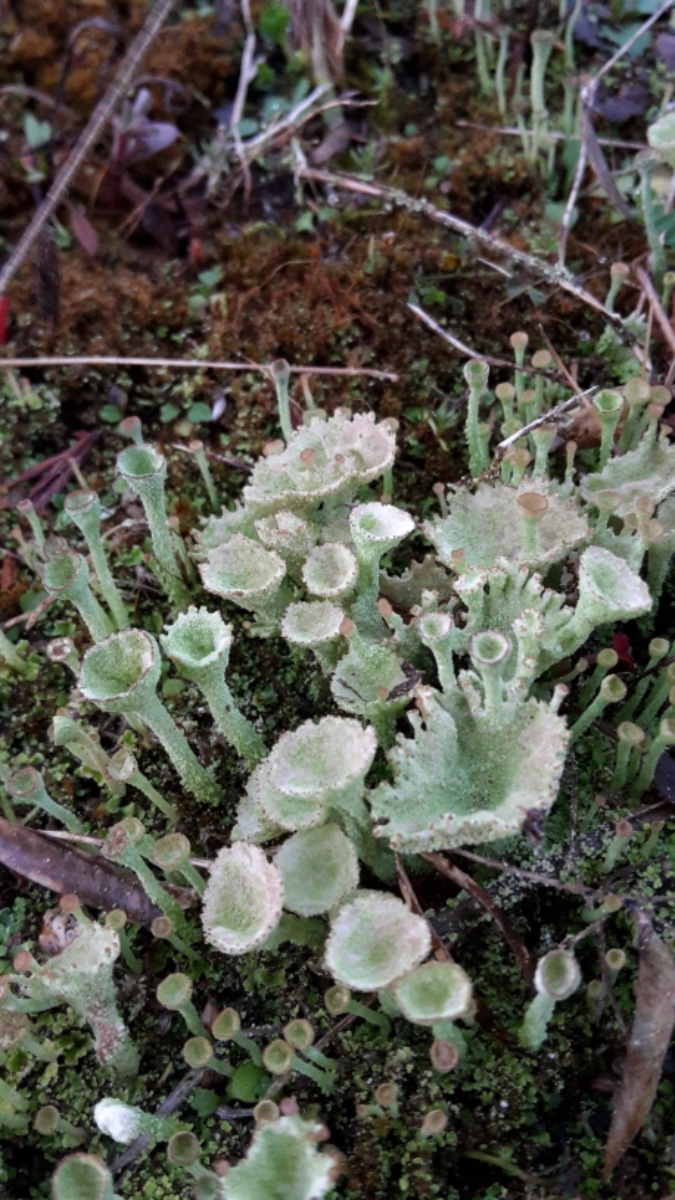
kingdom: Fungi
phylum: Ascomycota
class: Lecanoromycetes
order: Lecanorales
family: Cladoniaceae
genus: Cladonia
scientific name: Cladonia
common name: brungrøn bægerlav
